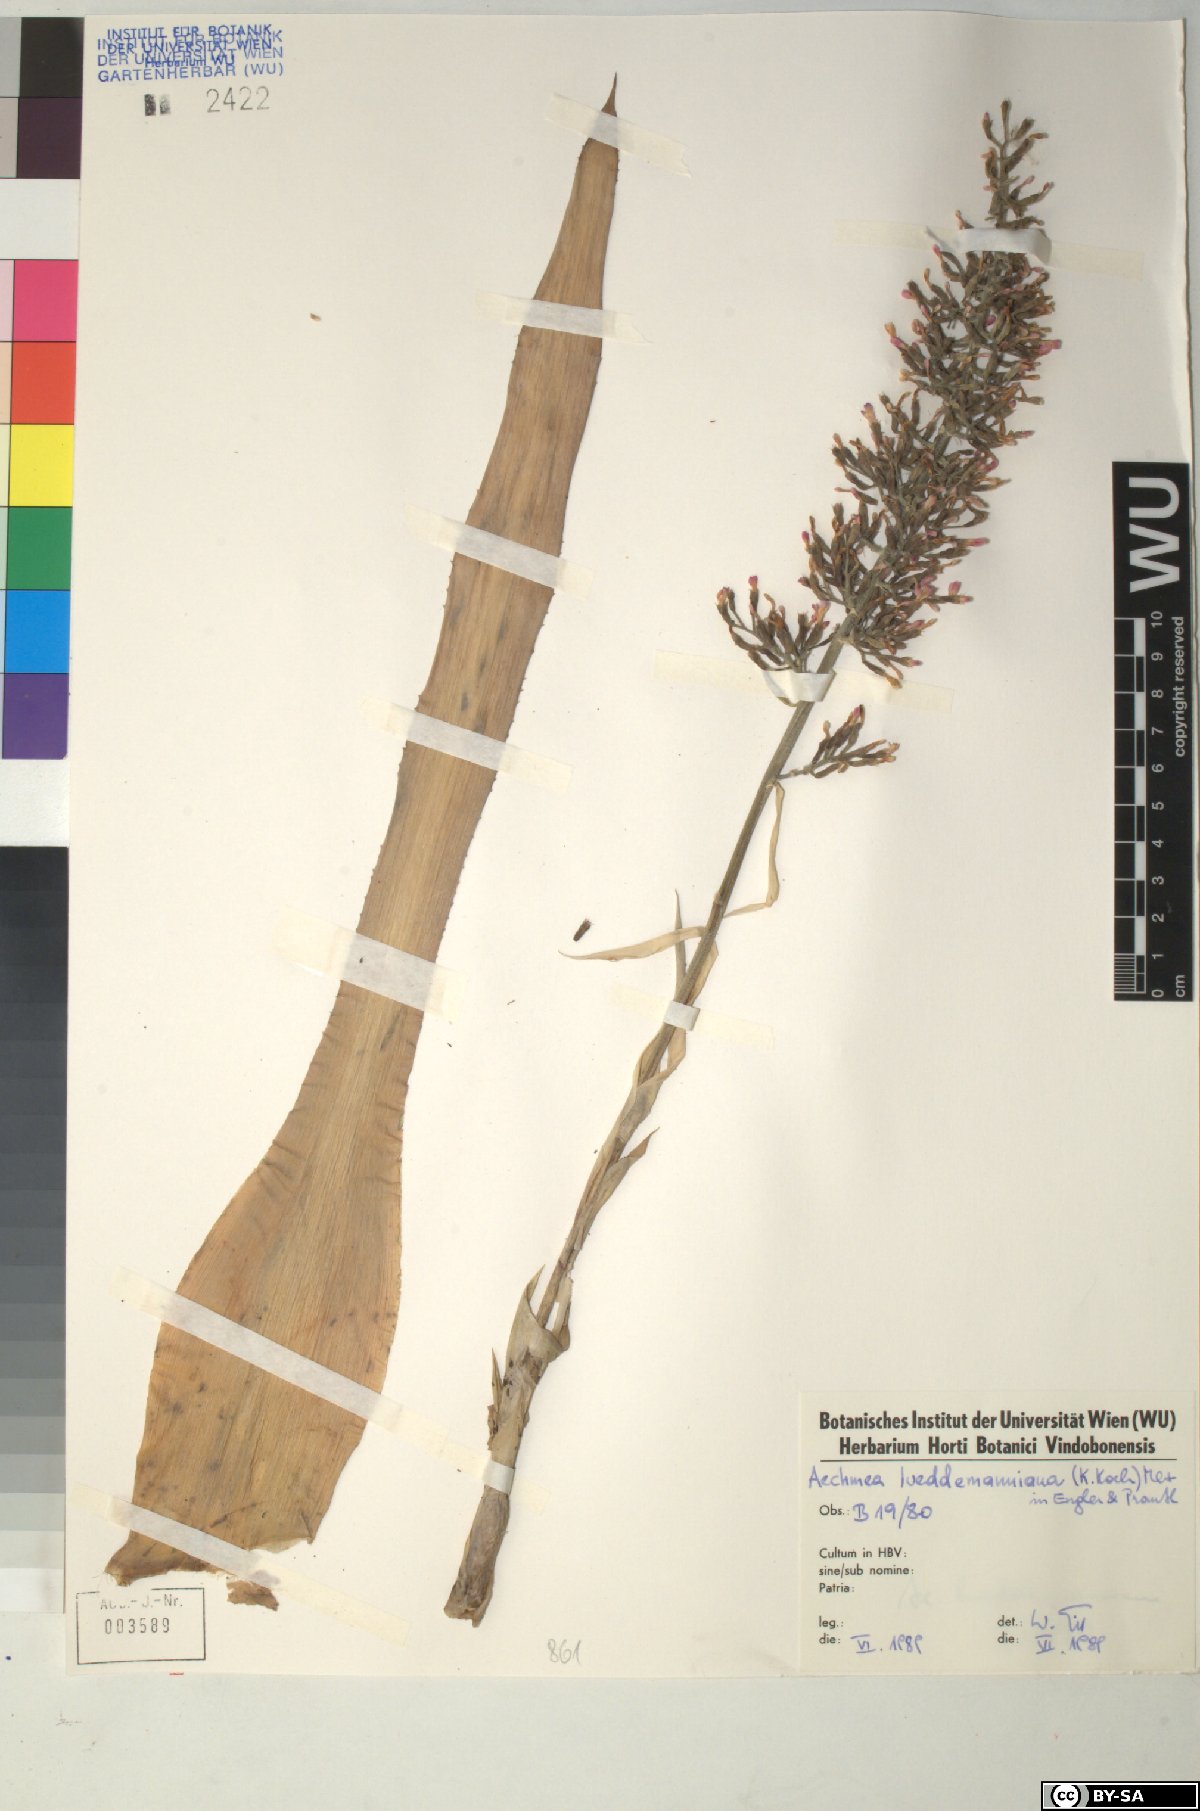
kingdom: Plantae
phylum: Tracheophyta
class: Liliopsida
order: Poales
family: Bromeliaceae
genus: Aechmea
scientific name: Aechmea lueddemanniana
